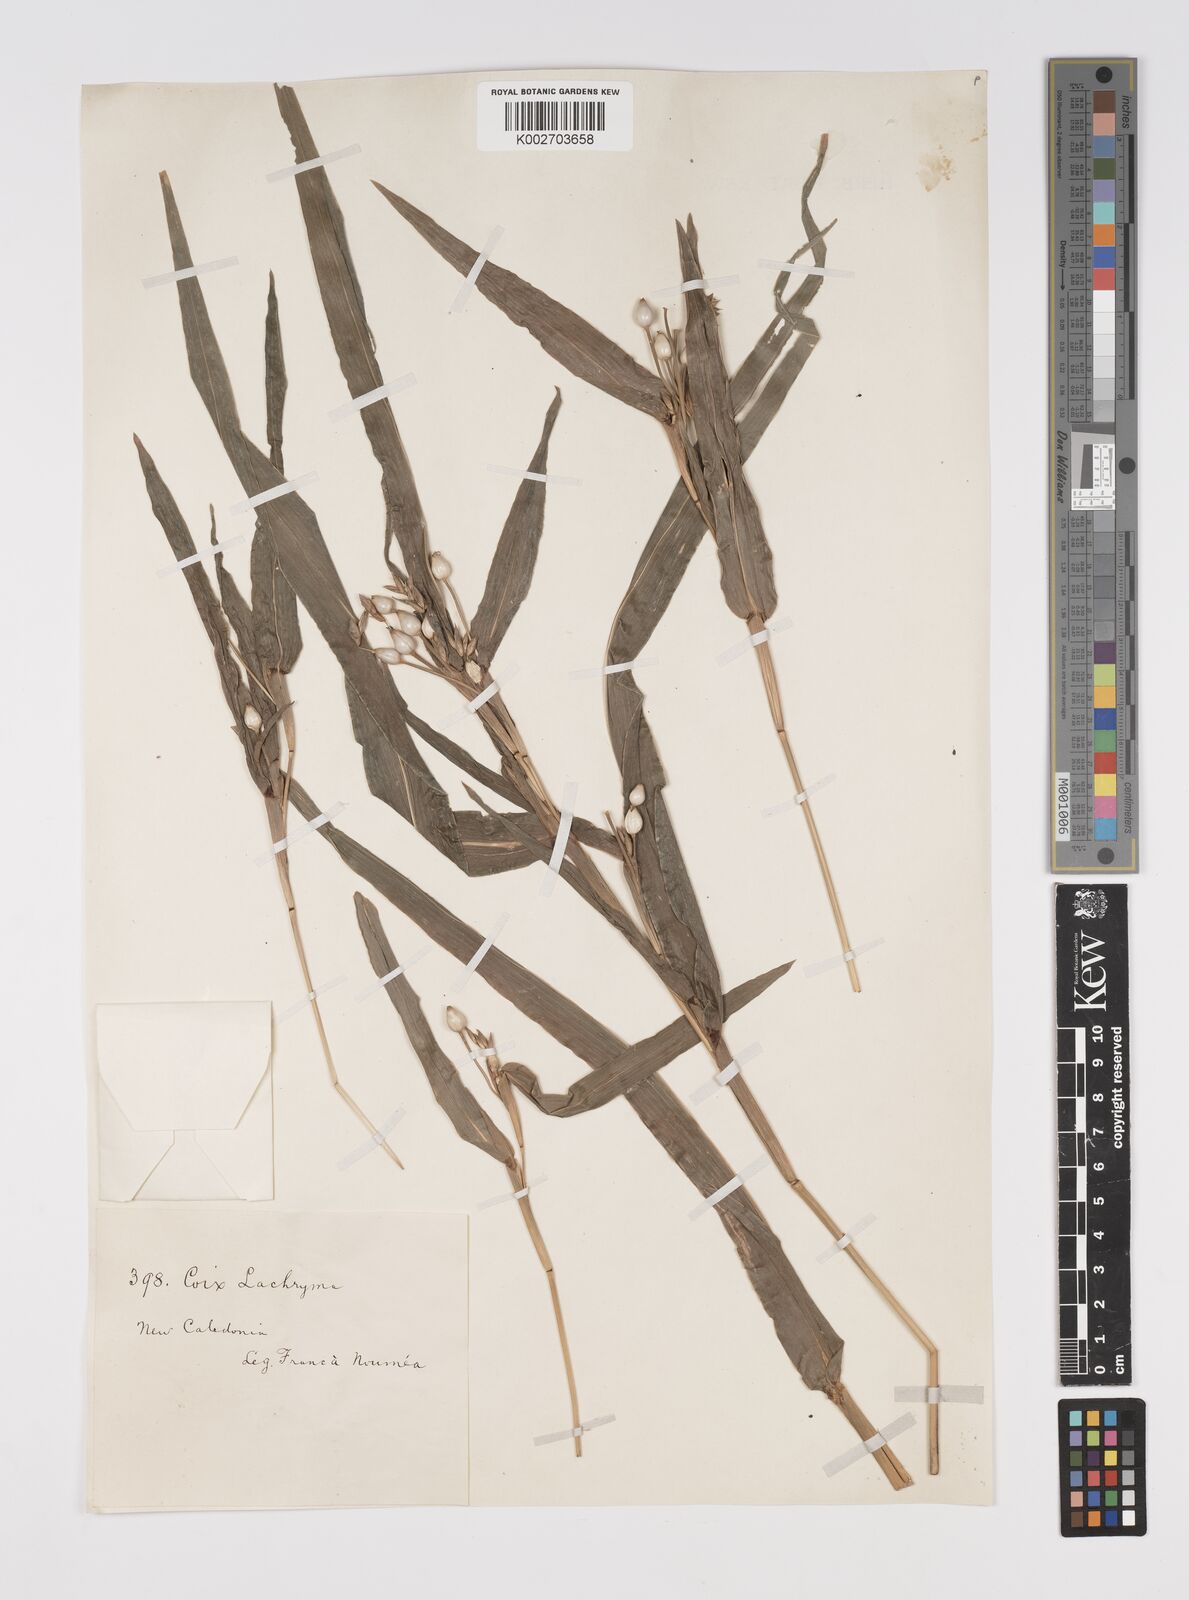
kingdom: Plantae
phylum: Tracheophyta
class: Liliopsida
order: Poales
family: Poaceae
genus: Coix
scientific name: Coix lacryma-jobi
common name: Job's tears
